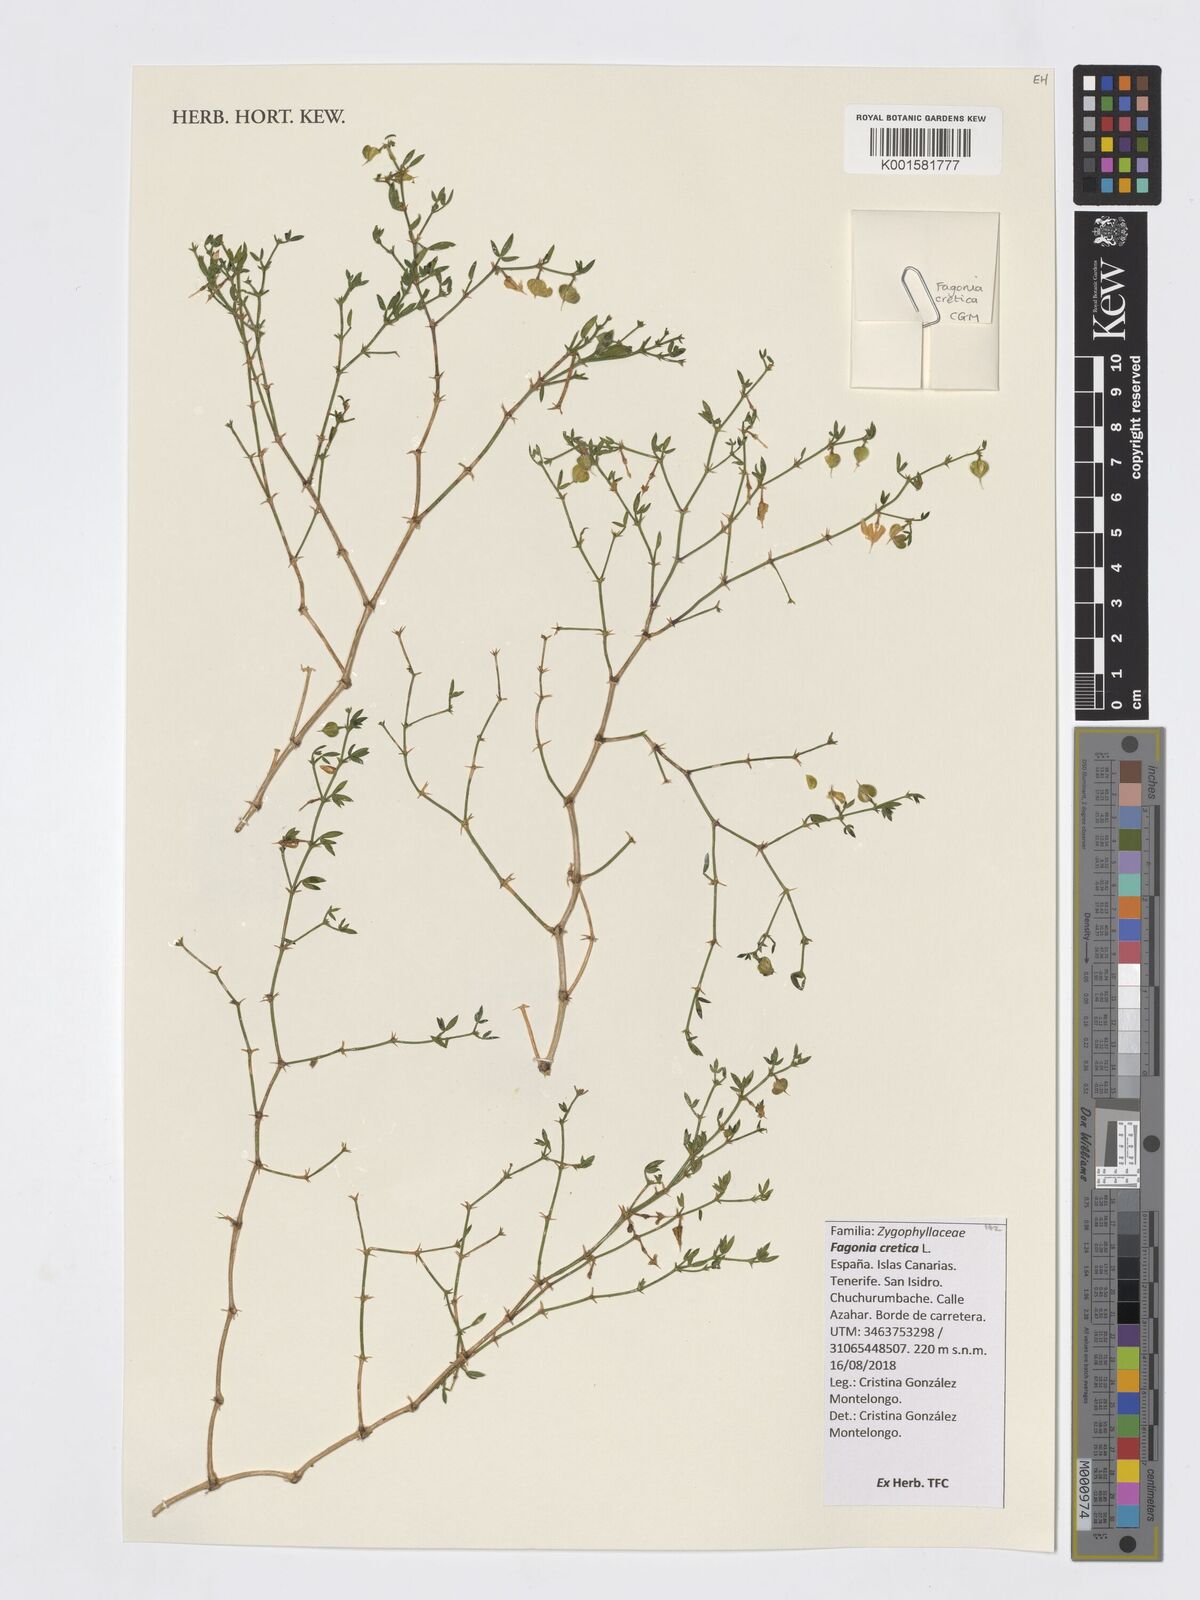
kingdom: Plantae
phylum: Tracheophyta
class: Magnoliopsida
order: Zygophyllales
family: Zygophyllaceae
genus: Fagonia
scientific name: Fagonia cretica
